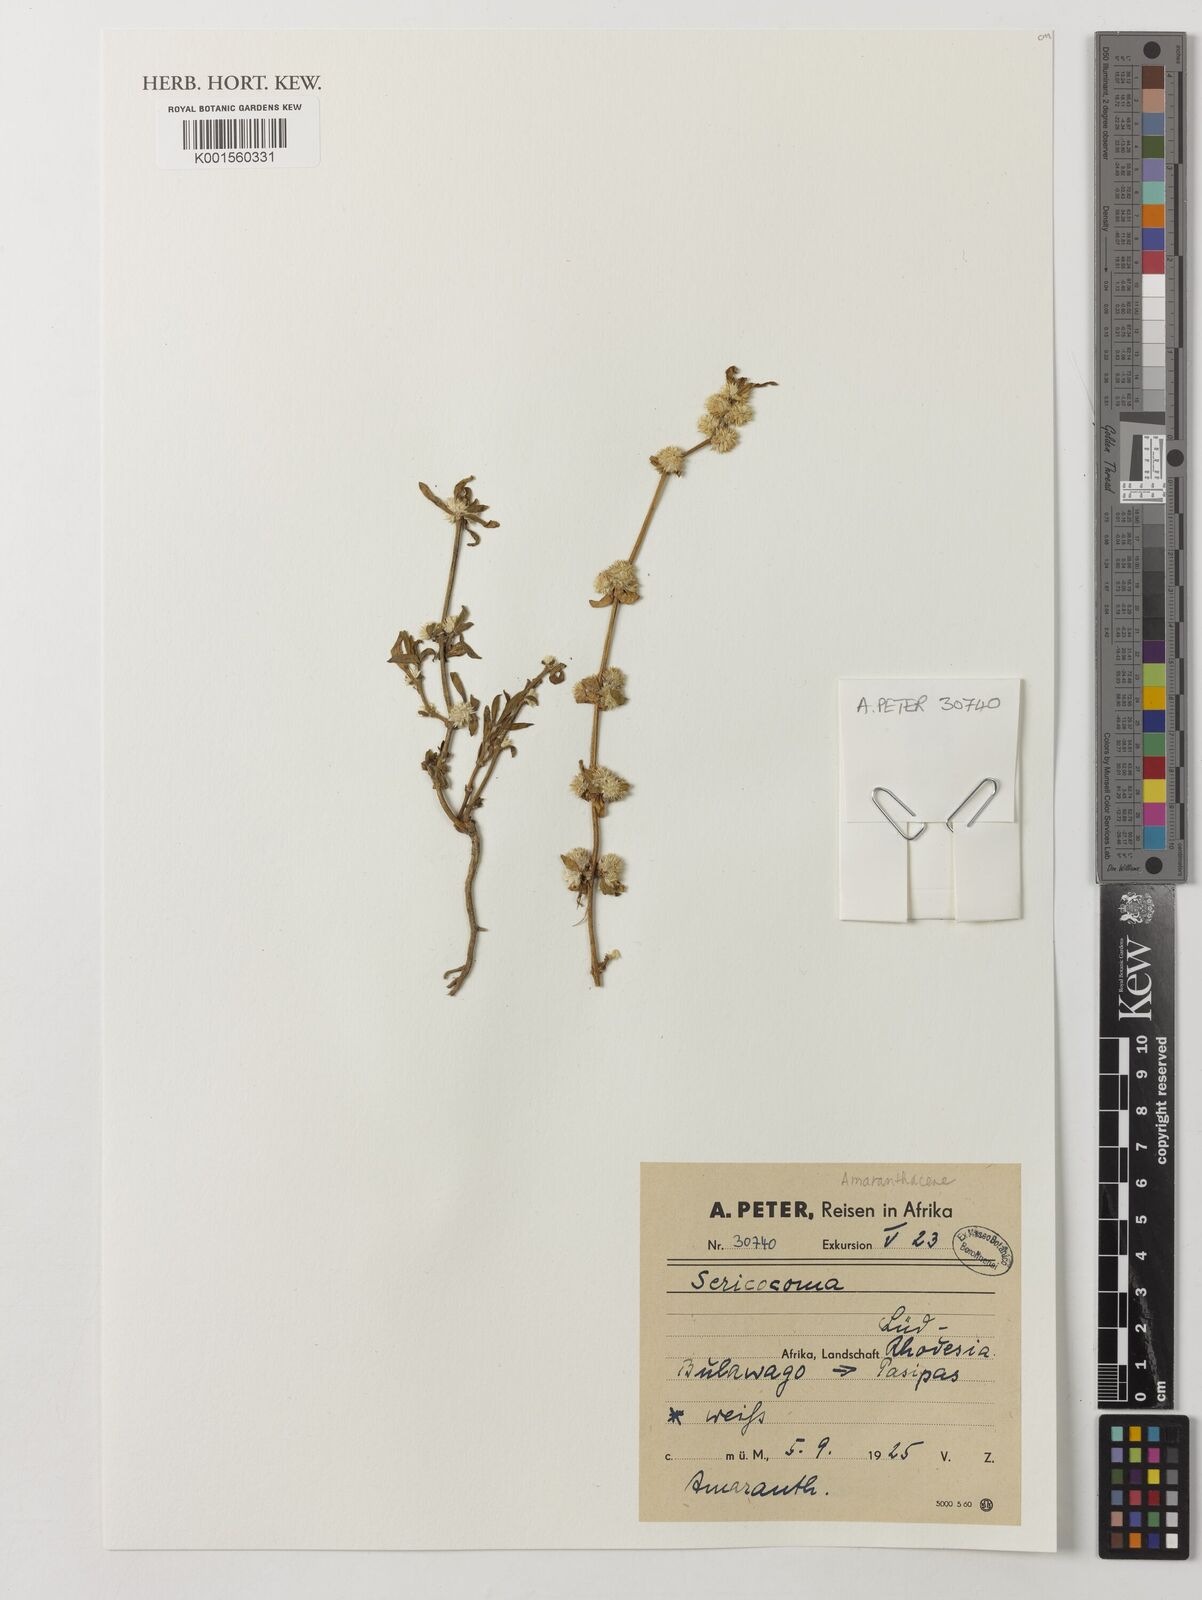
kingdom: Plantae
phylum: Tracheophyta
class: Magnoliopsida
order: Caryophyllales
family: Amaranthaceae
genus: Sericocoma
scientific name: Sericocoma
